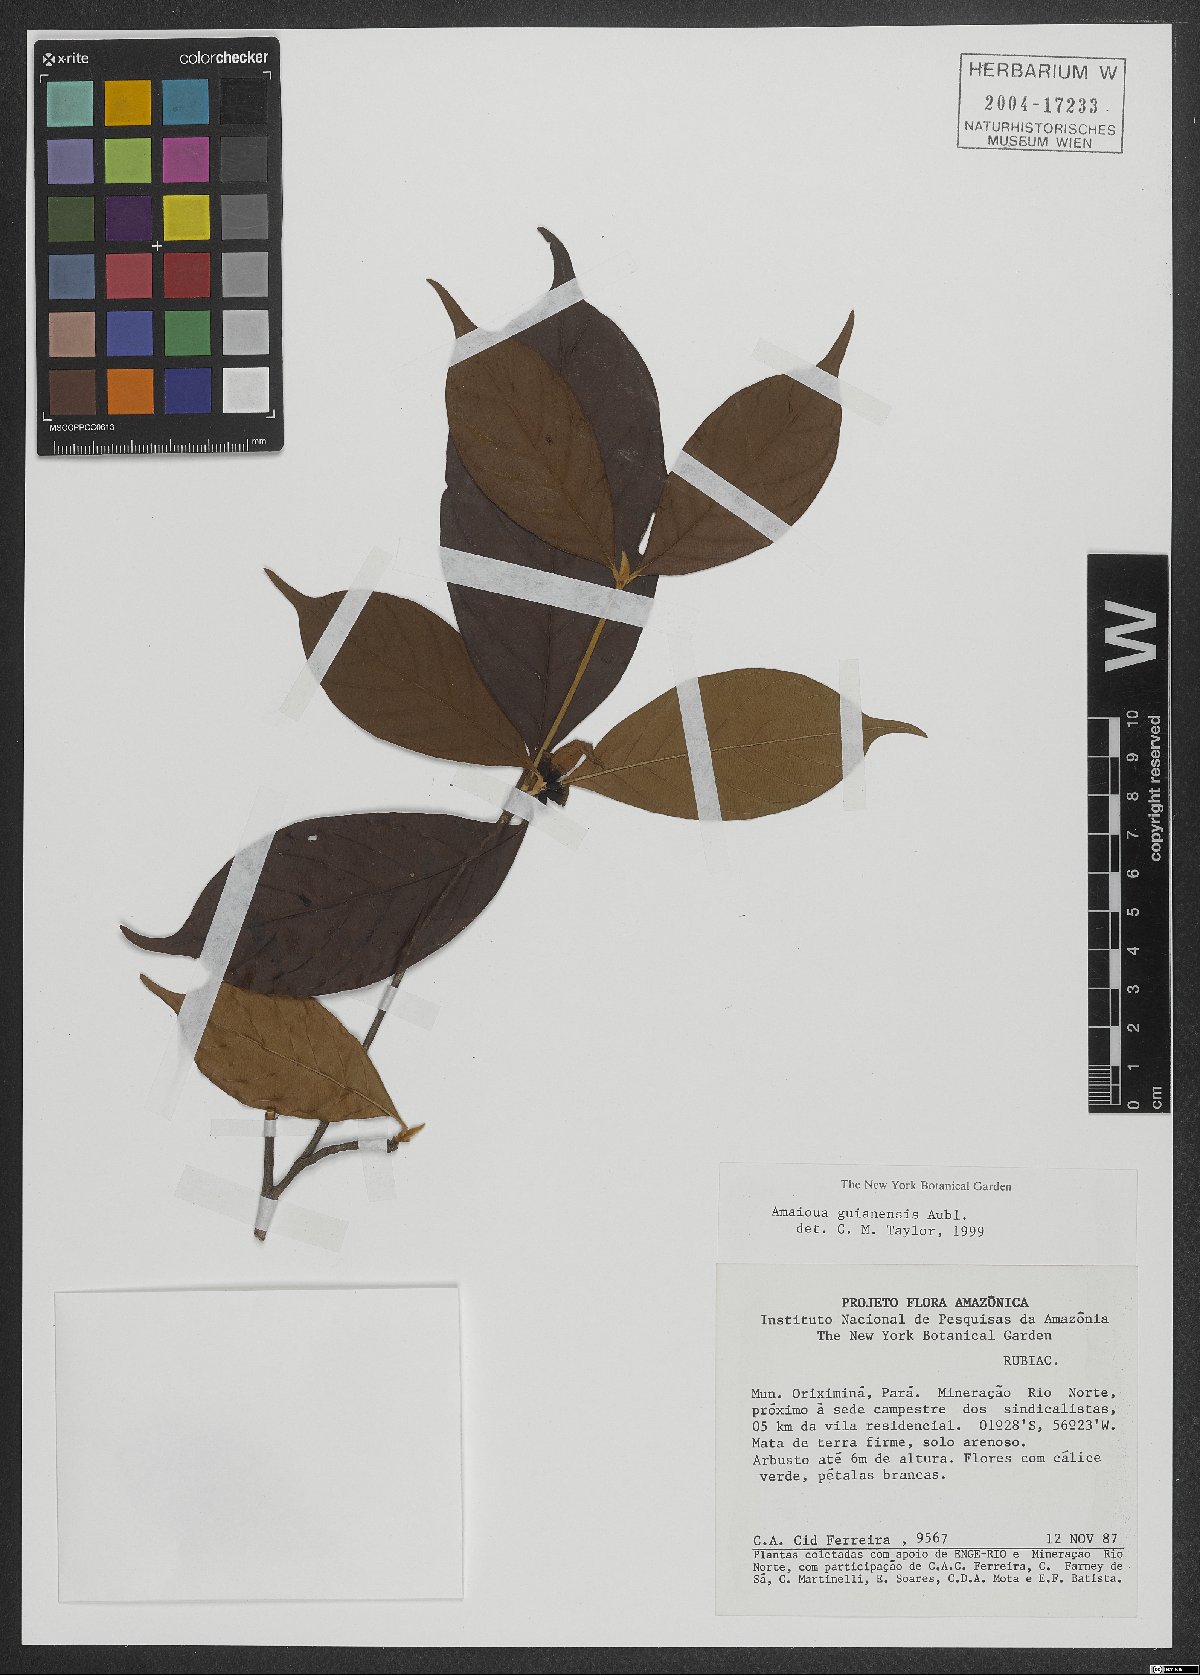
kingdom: Plantae
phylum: Tracheophyta
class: Magnoliopsida
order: Gentianales
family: Rubiaceae
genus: Amaioua
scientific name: Amaioua guianensis
